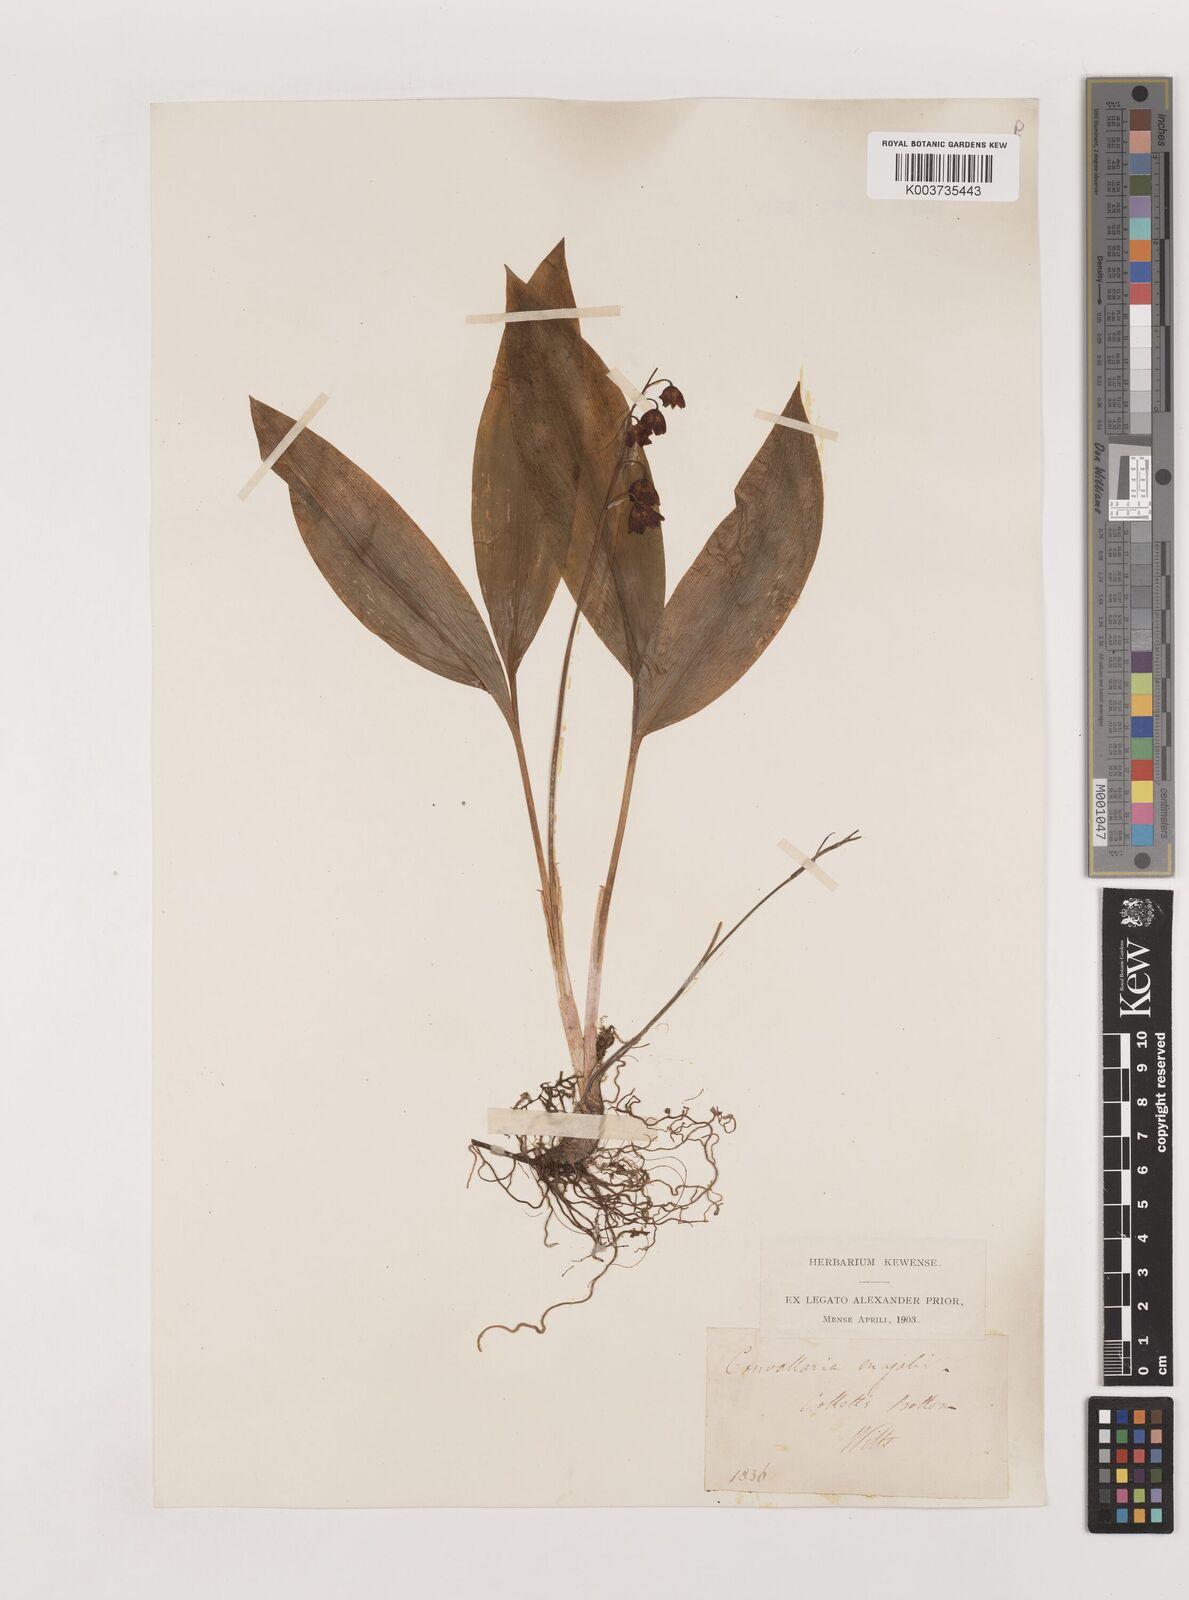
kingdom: Plantae
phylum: Tracheophyta
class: Liliopsida
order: Asparagales
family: Asparagaceae
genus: Convallaria
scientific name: Convallaria majalis
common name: Lily-of-the-valley
